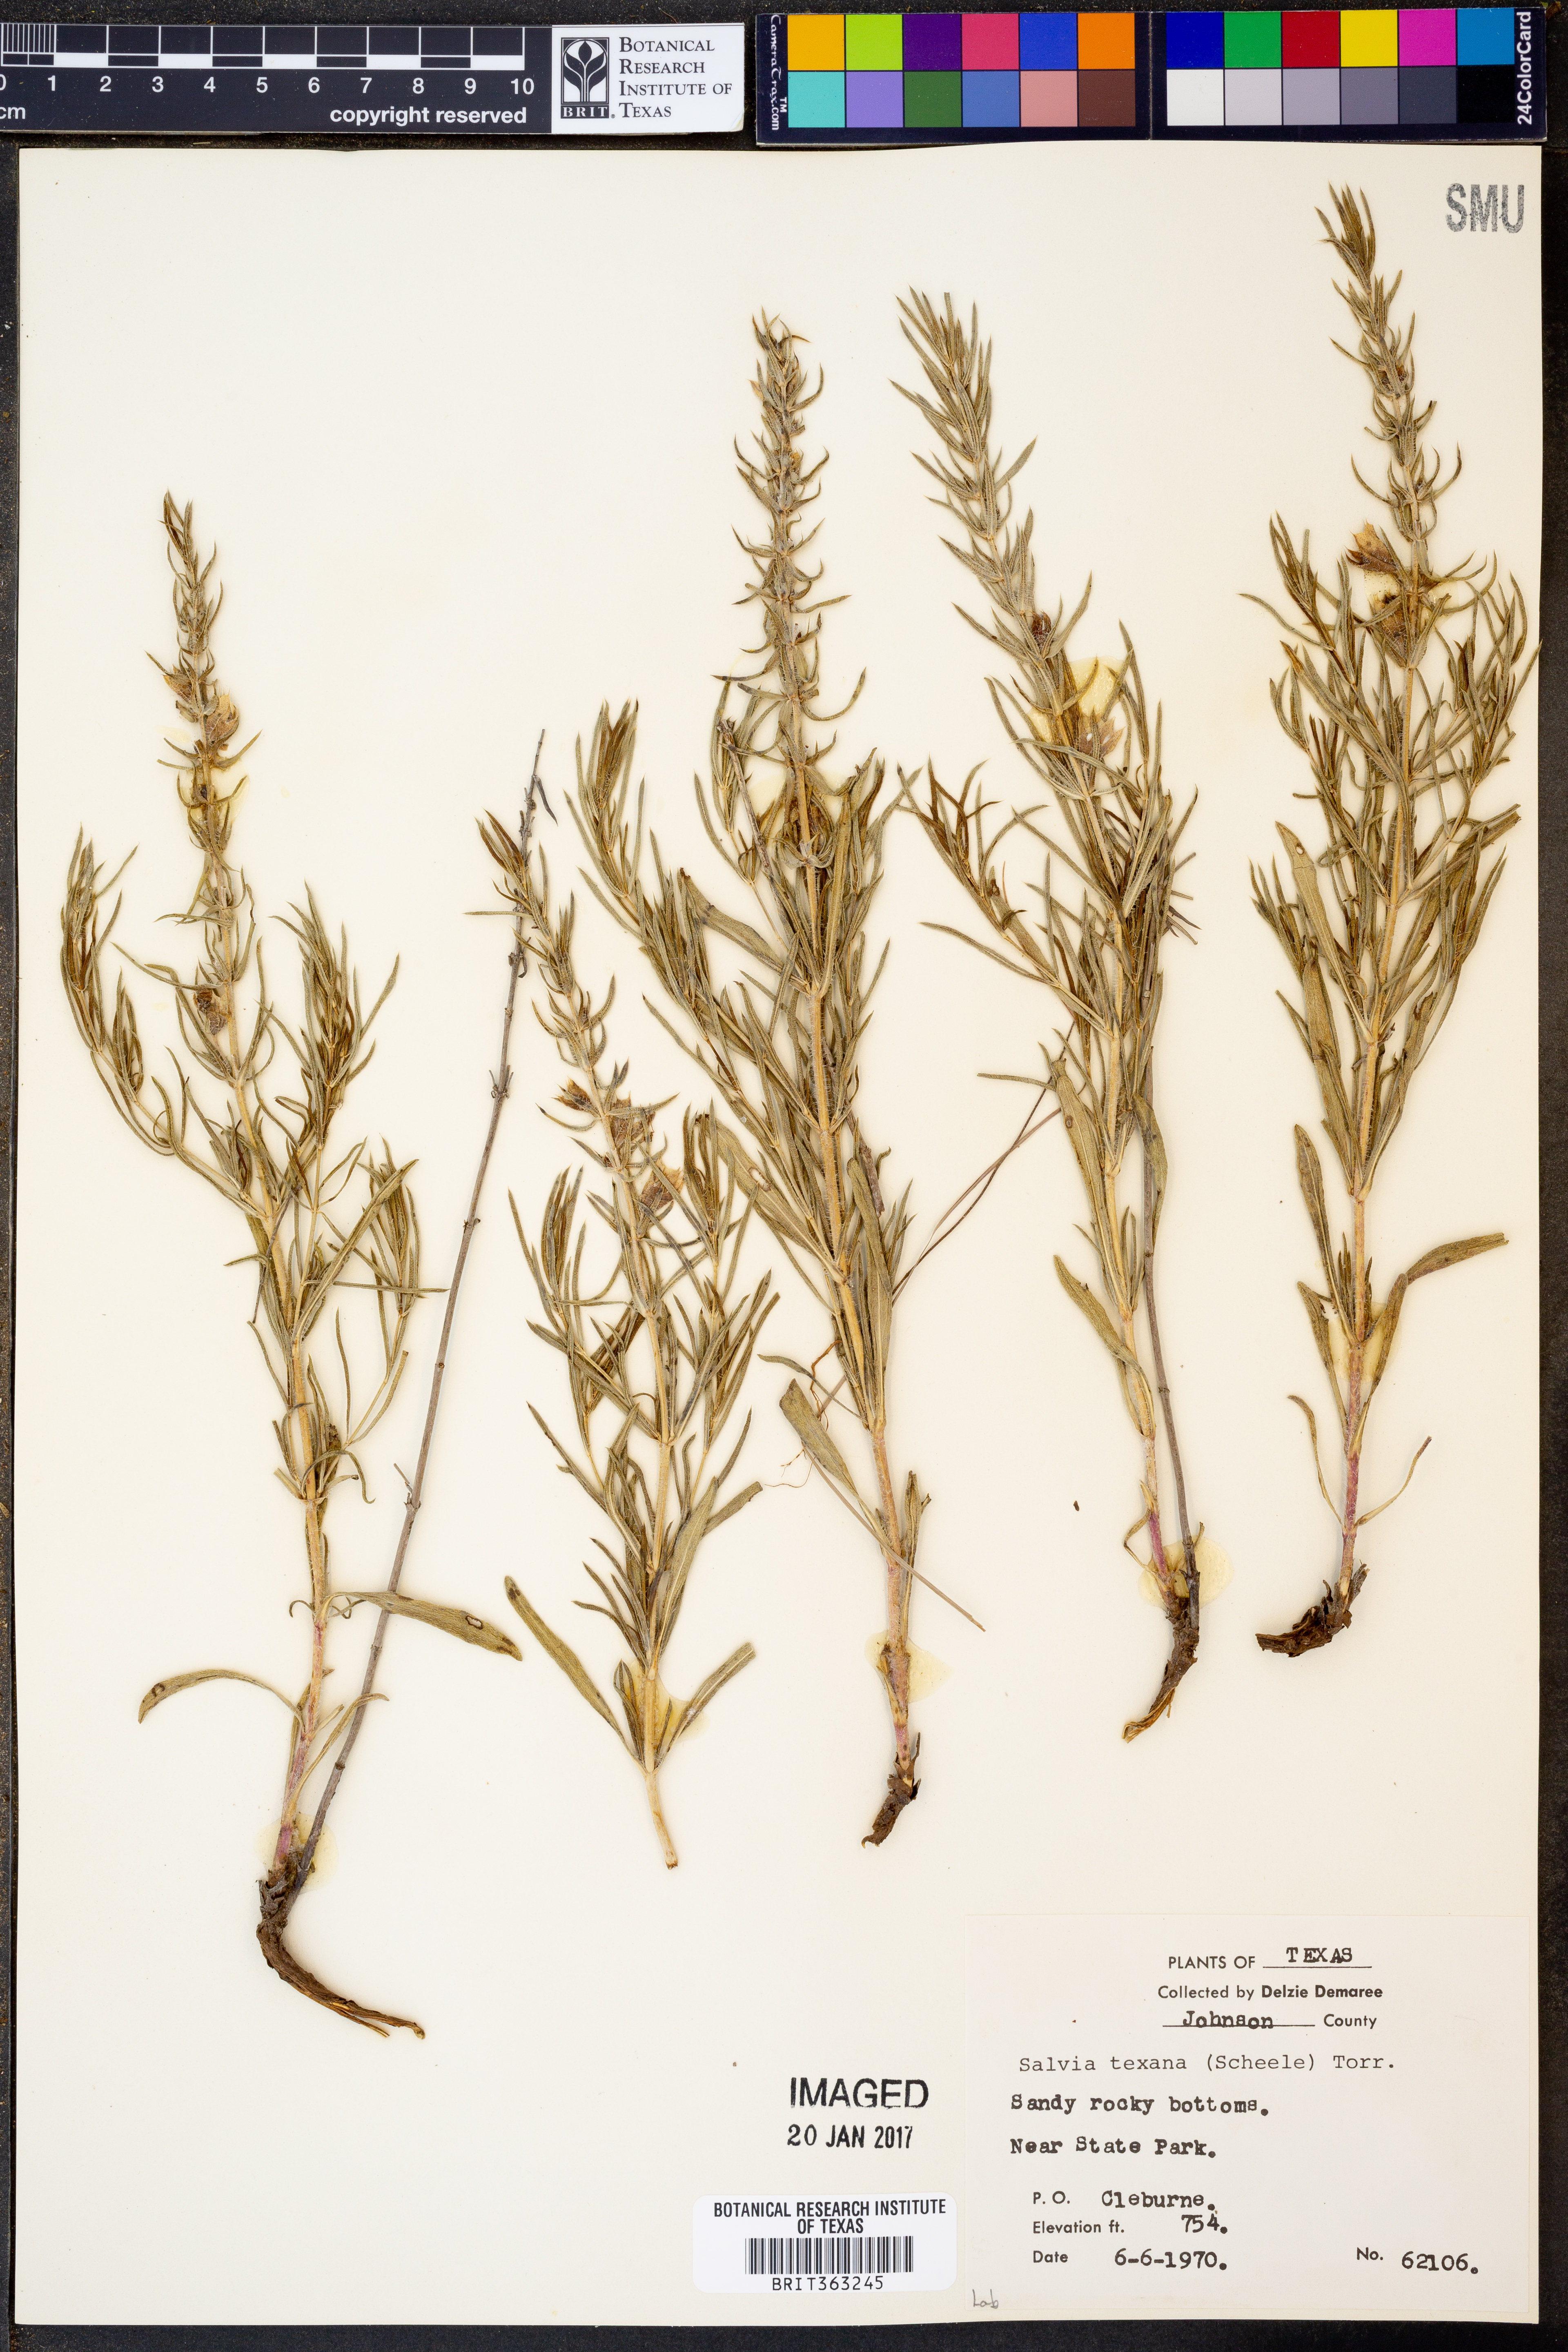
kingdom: Plantae
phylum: Tracheophyta
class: Magnoliopsida
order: Lamiales
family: Lamiaceae
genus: Salvia
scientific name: Salvia texana
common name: Texas sage
